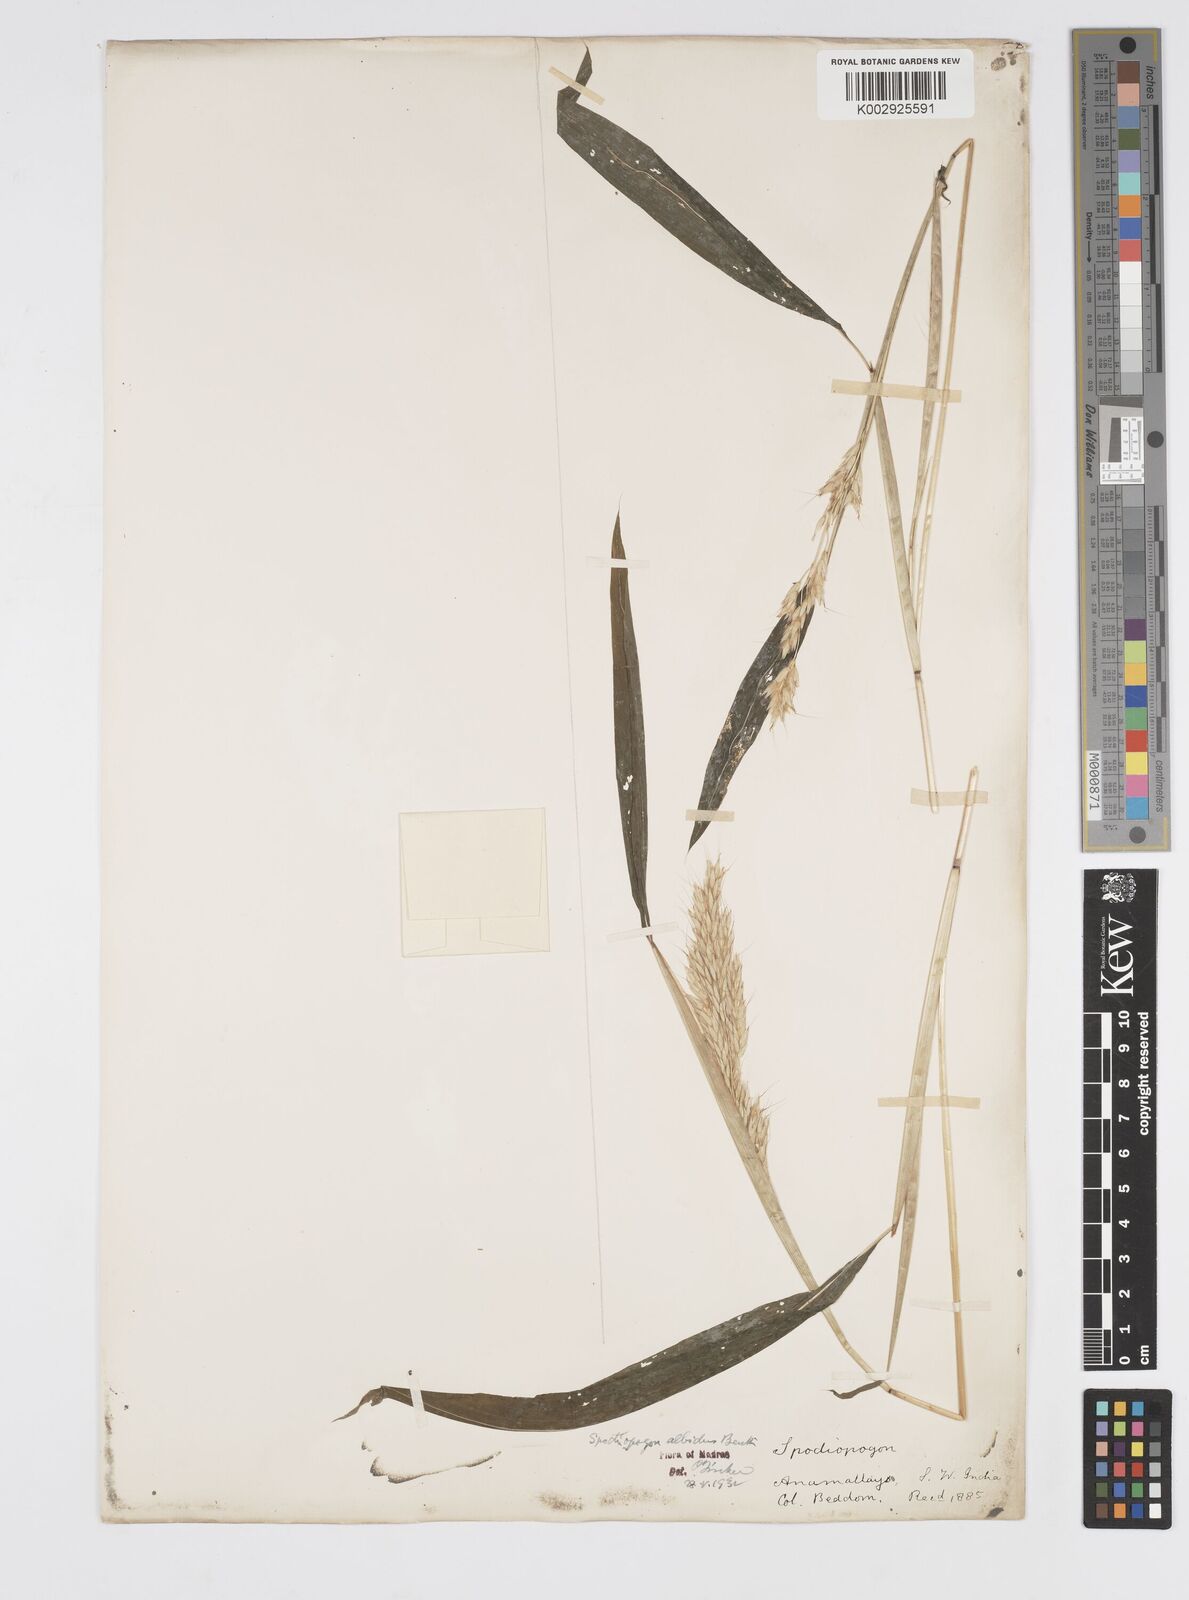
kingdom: Plantae
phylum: Tracheophyta
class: Liliopsida
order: Poales
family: Poaceae
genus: Spodiopogon
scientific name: Spodiopogon rhizophorus
